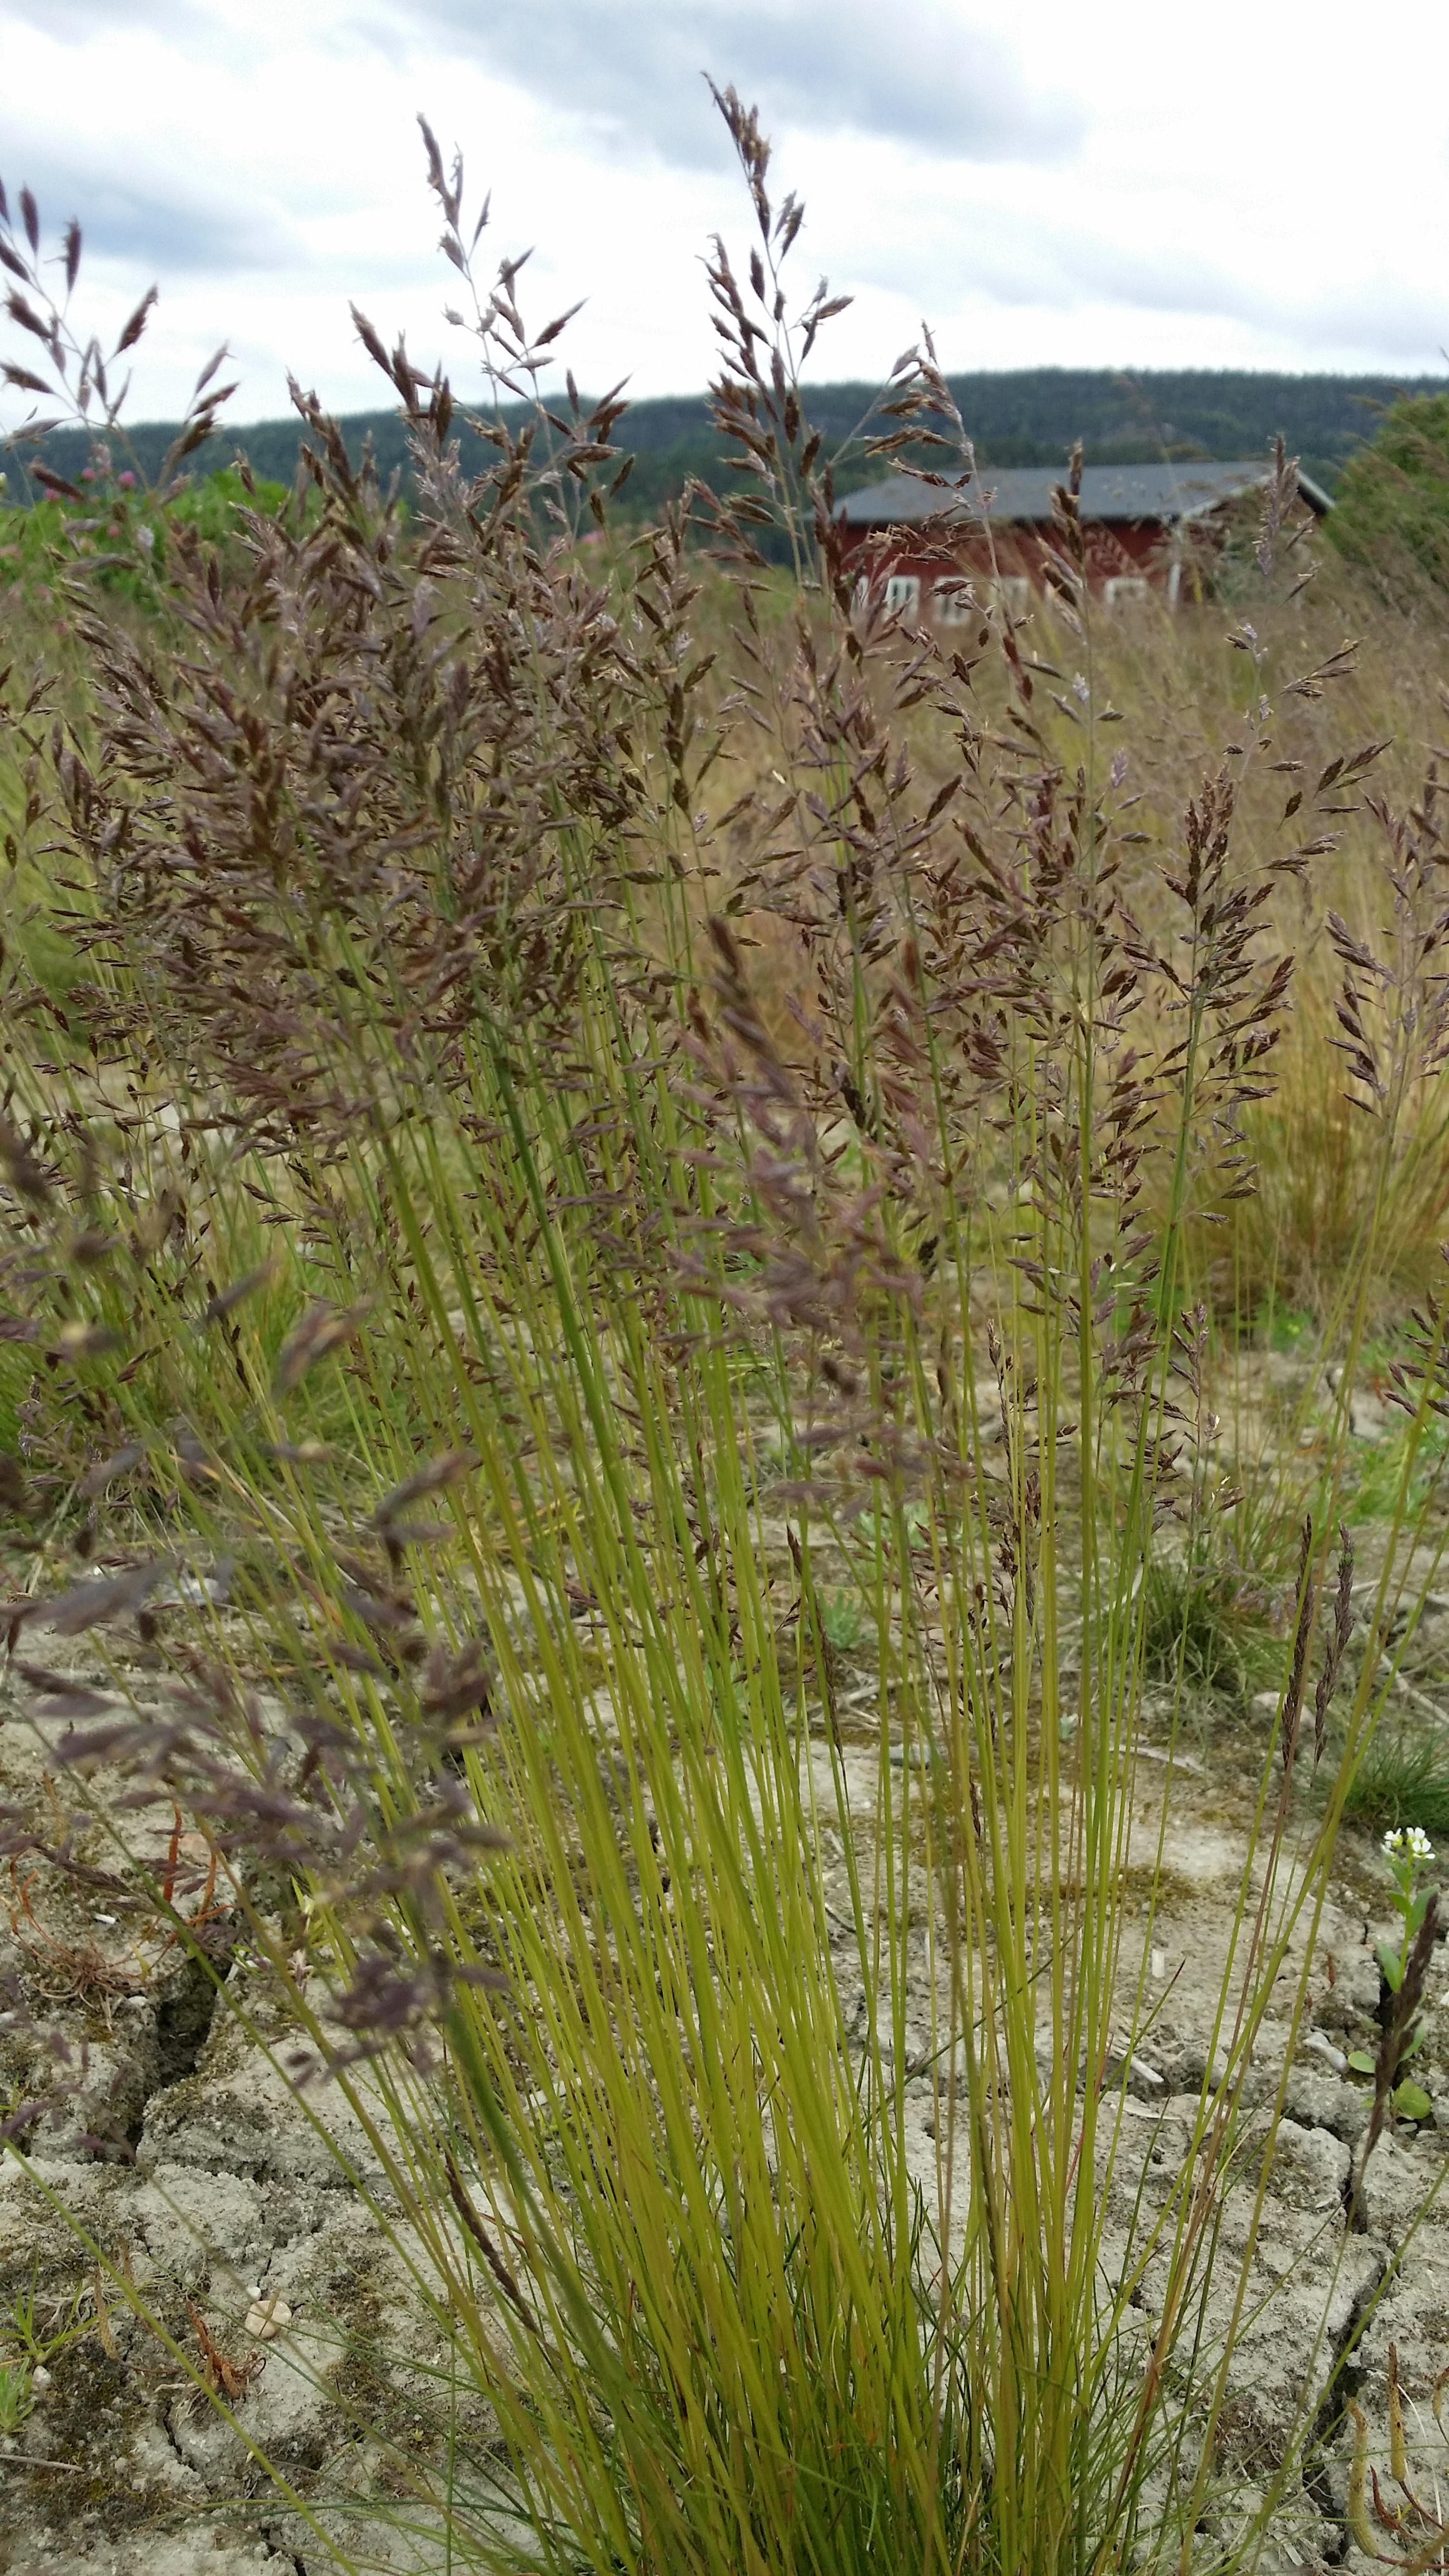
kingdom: Plantae
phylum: Tracheophyta
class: Liliopsida
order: Poales
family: Poaceae
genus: Festuca
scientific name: Festuca ovina
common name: Sheep fescue
